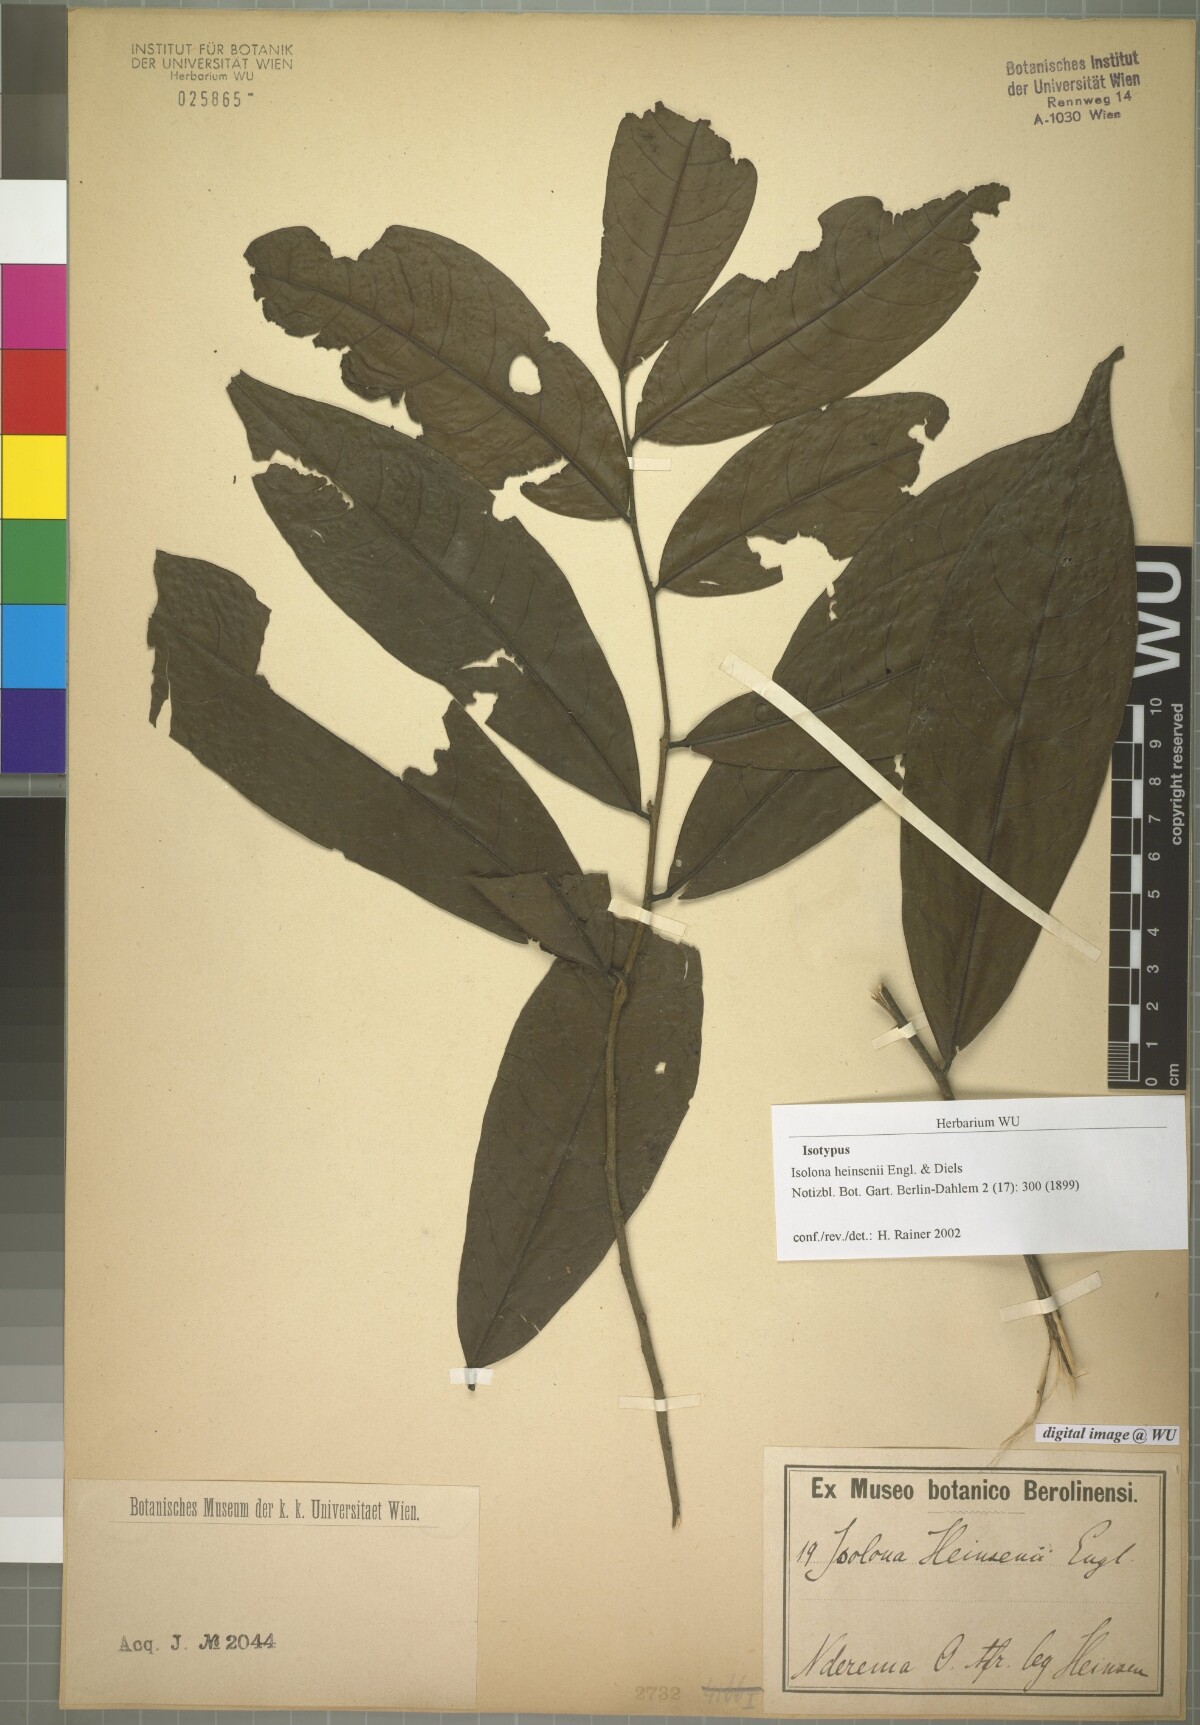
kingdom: Plantae
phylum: Tracheophyta
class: Magnoliopsida
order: Magnoliales
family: Annonaceae
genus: Isolona
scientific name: Isolona heinsenii
